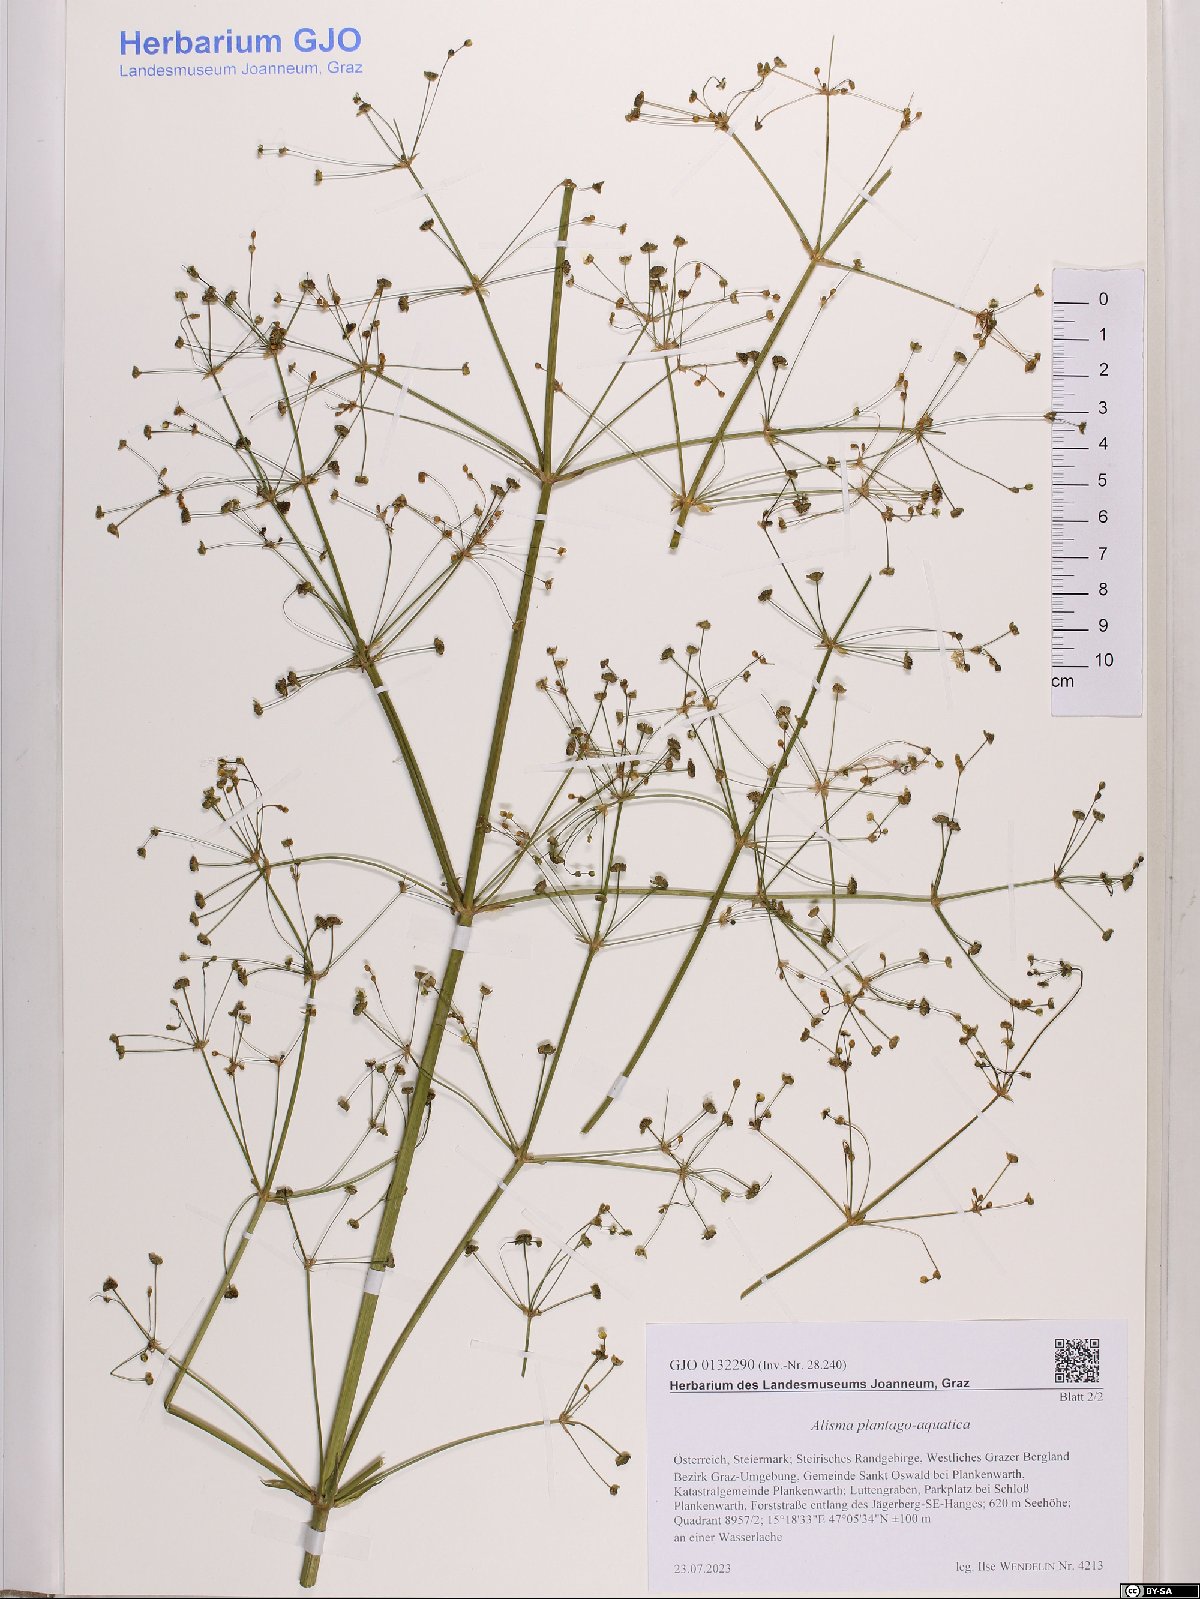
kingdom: Plantae
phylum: Tracheophyta
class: Liliopsida
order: Alismatales
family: Alismataceae
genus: Alisma
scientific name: Alisma plantago-aquatica
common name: Water-plantain
